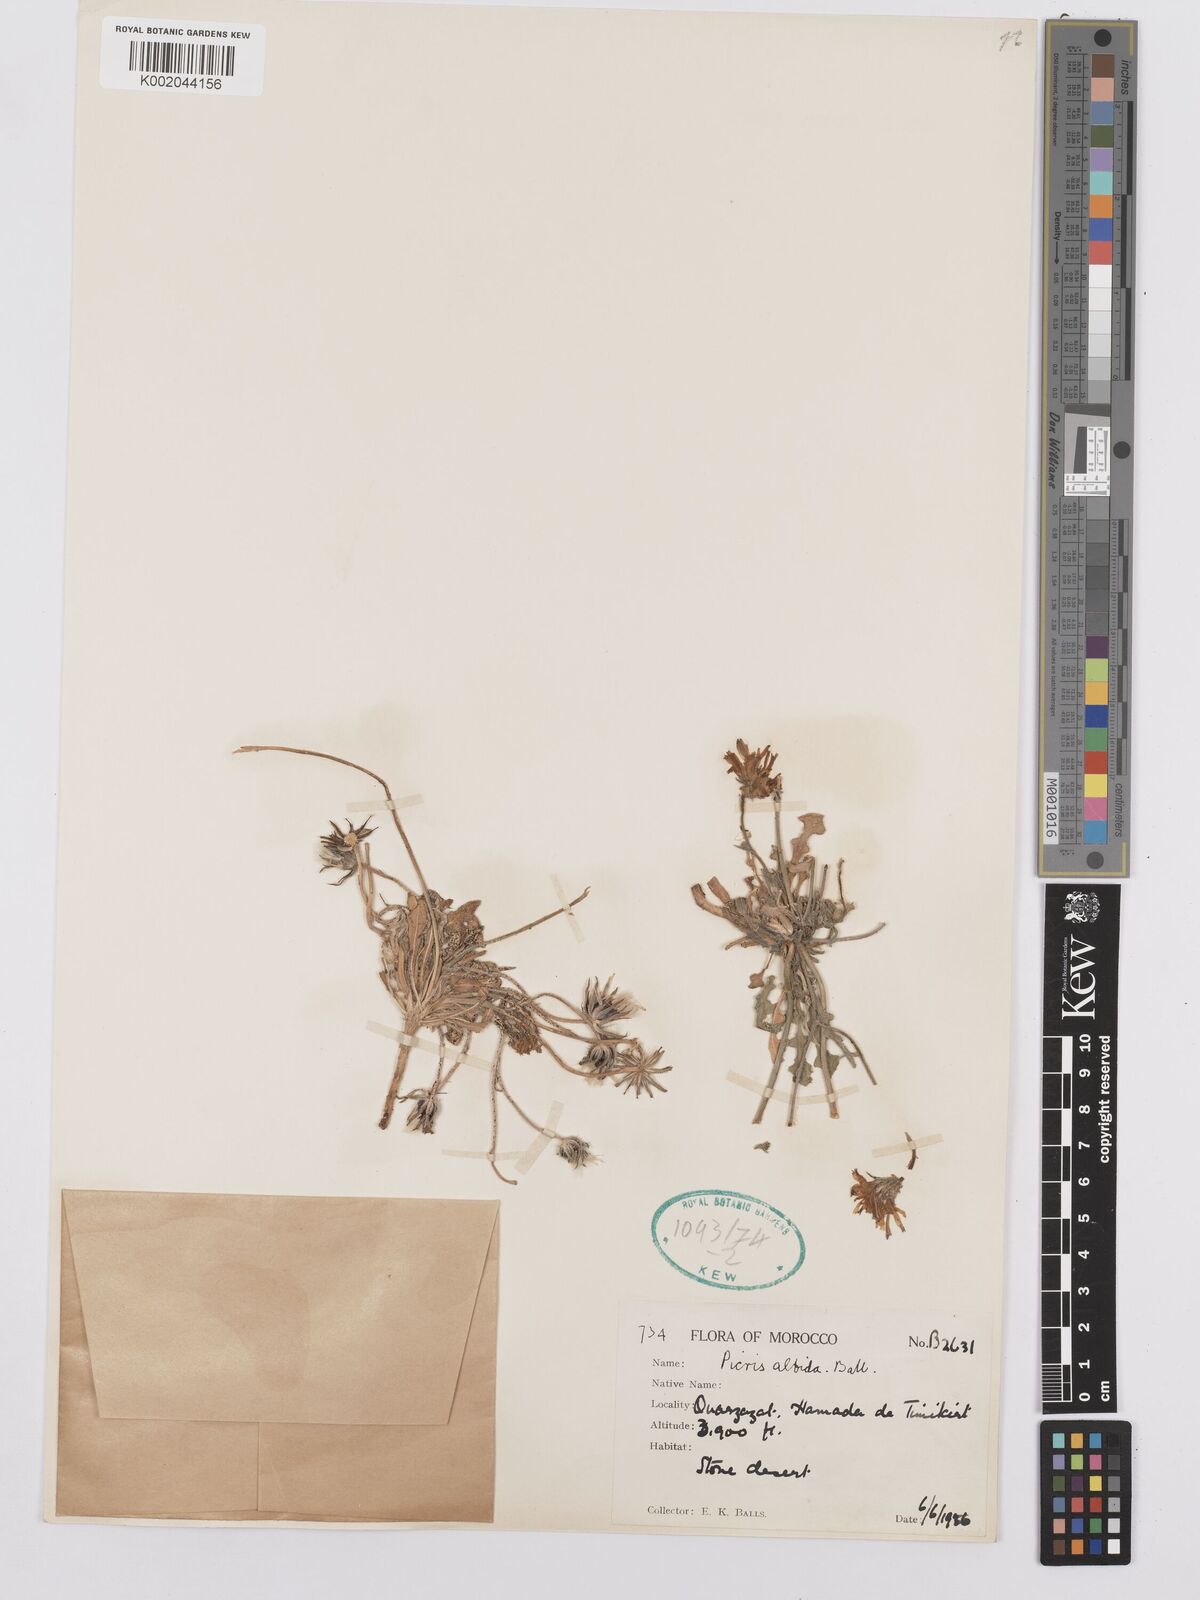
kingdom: Plantae
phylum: Tracheophyta
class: Magnoliopsida
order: Asterales
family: Asteraceae
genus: Picris
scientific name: Picris albida
